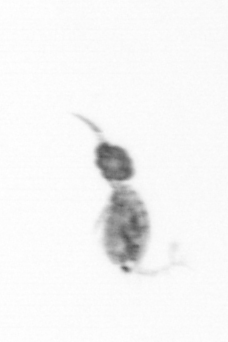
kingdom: Animalia
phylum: Arthropoda
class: Copepoda
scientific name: Copepoda
